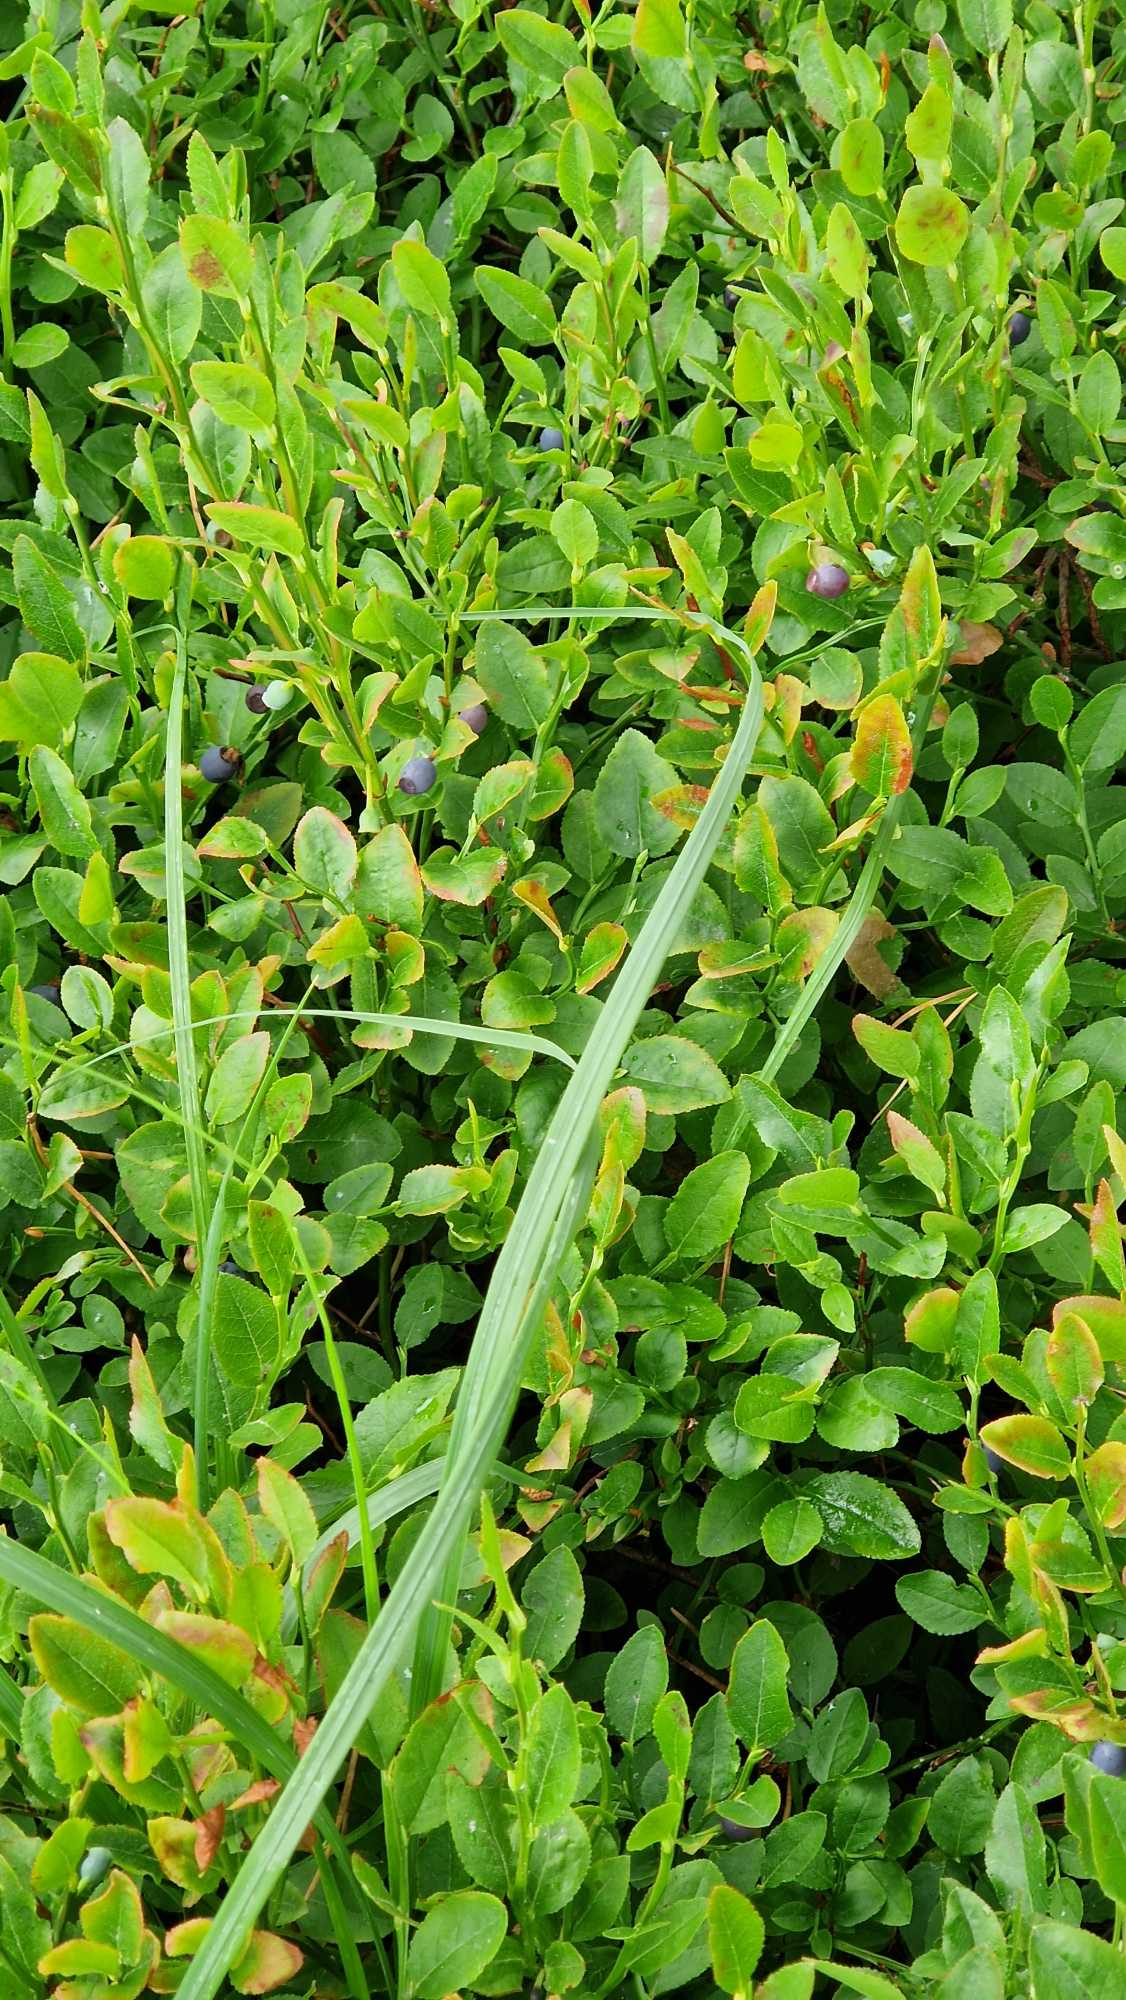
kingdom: Plantae
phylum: Tracheophyta
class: Magnoliopsida
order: Ericales
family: Ericaceae
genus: Vaccinium
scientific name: Vaccinium myrtillus
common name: Blåbær
